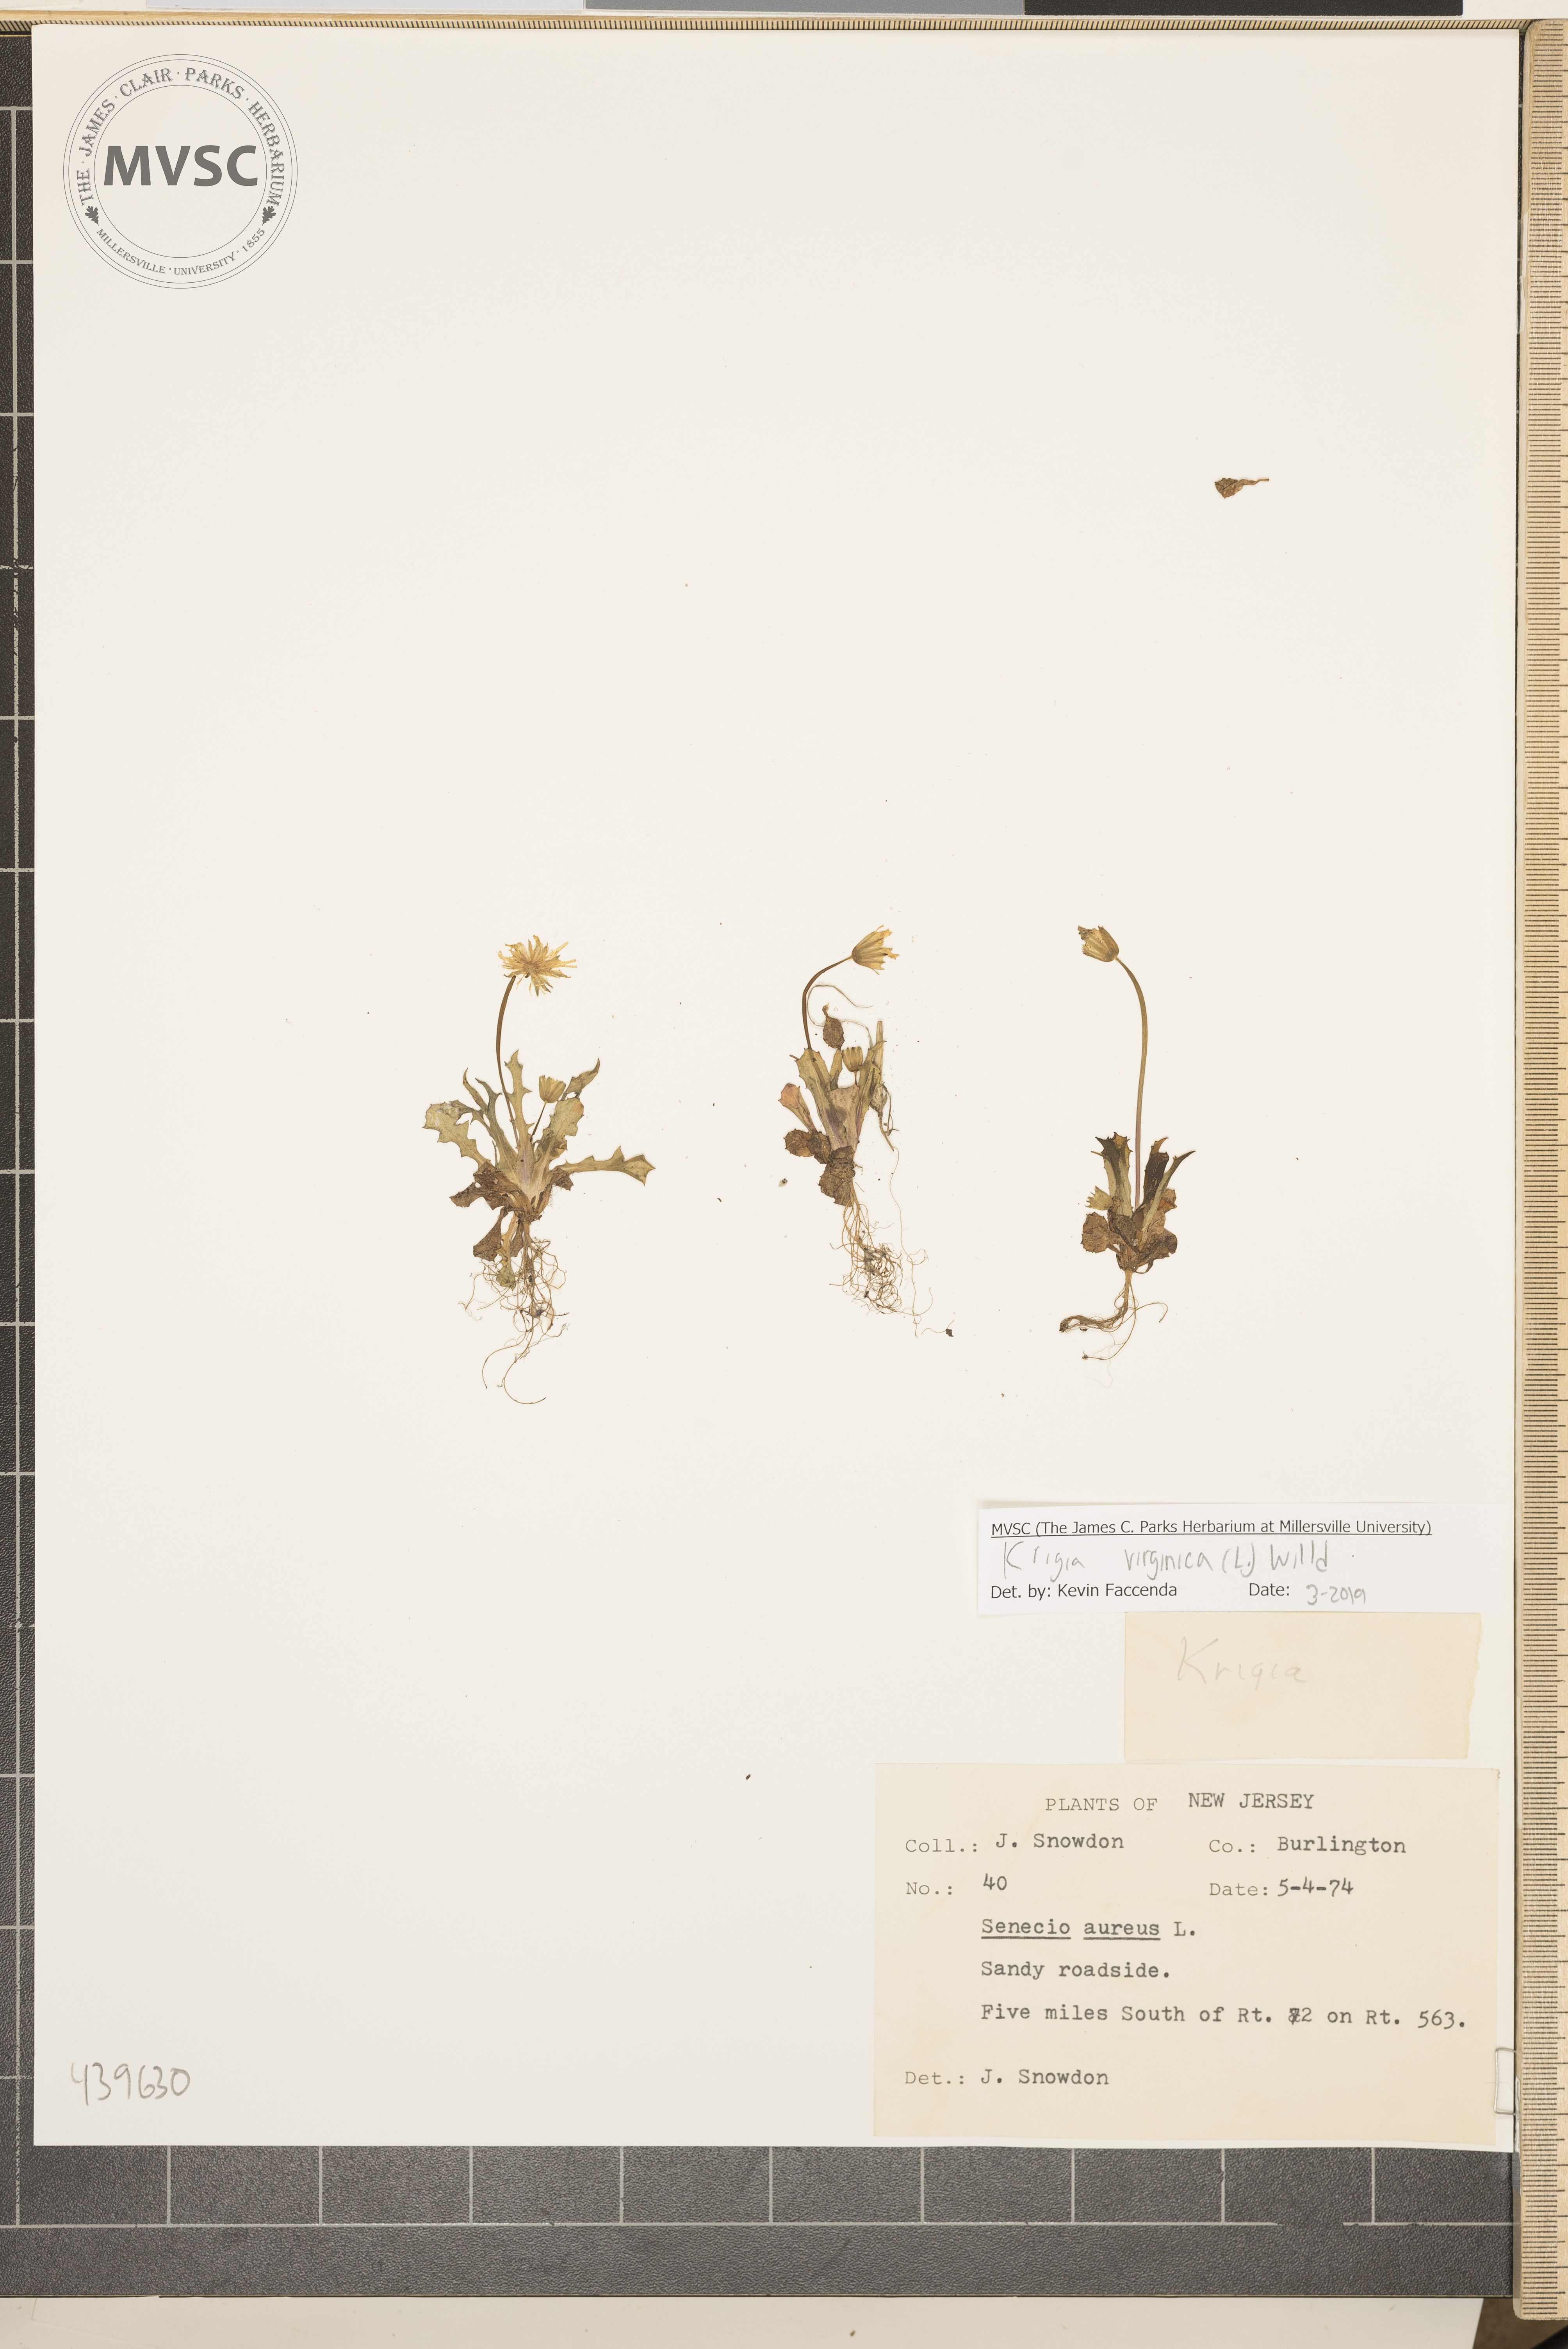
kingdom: Plantae
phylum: Tracheophyta
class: Magnoliopsida
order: Asterales
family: Asteraceae
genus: Krigia
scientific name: Krigia virginica
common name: Virginia dwarf-dandelion
